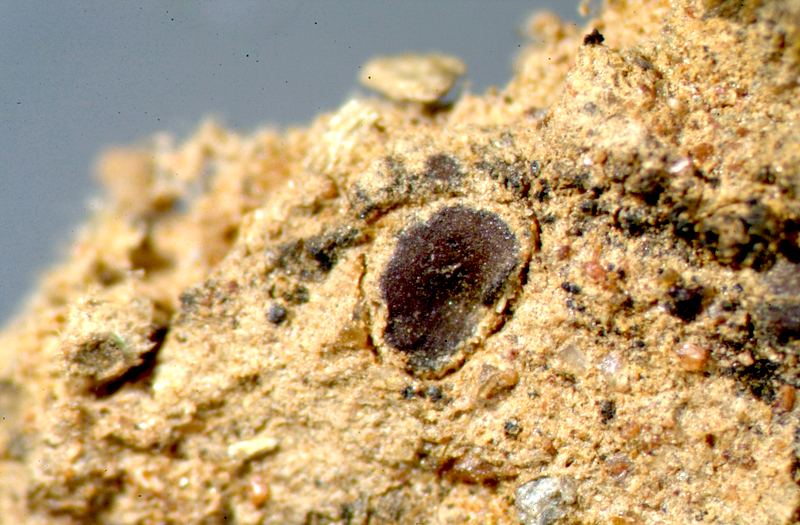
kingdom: Fungi
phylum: Ascomycota
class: Lecanoromycetes
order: Peltigerales
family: Collemataceae
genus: Enchylium
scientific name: Enchylium coccophorum
